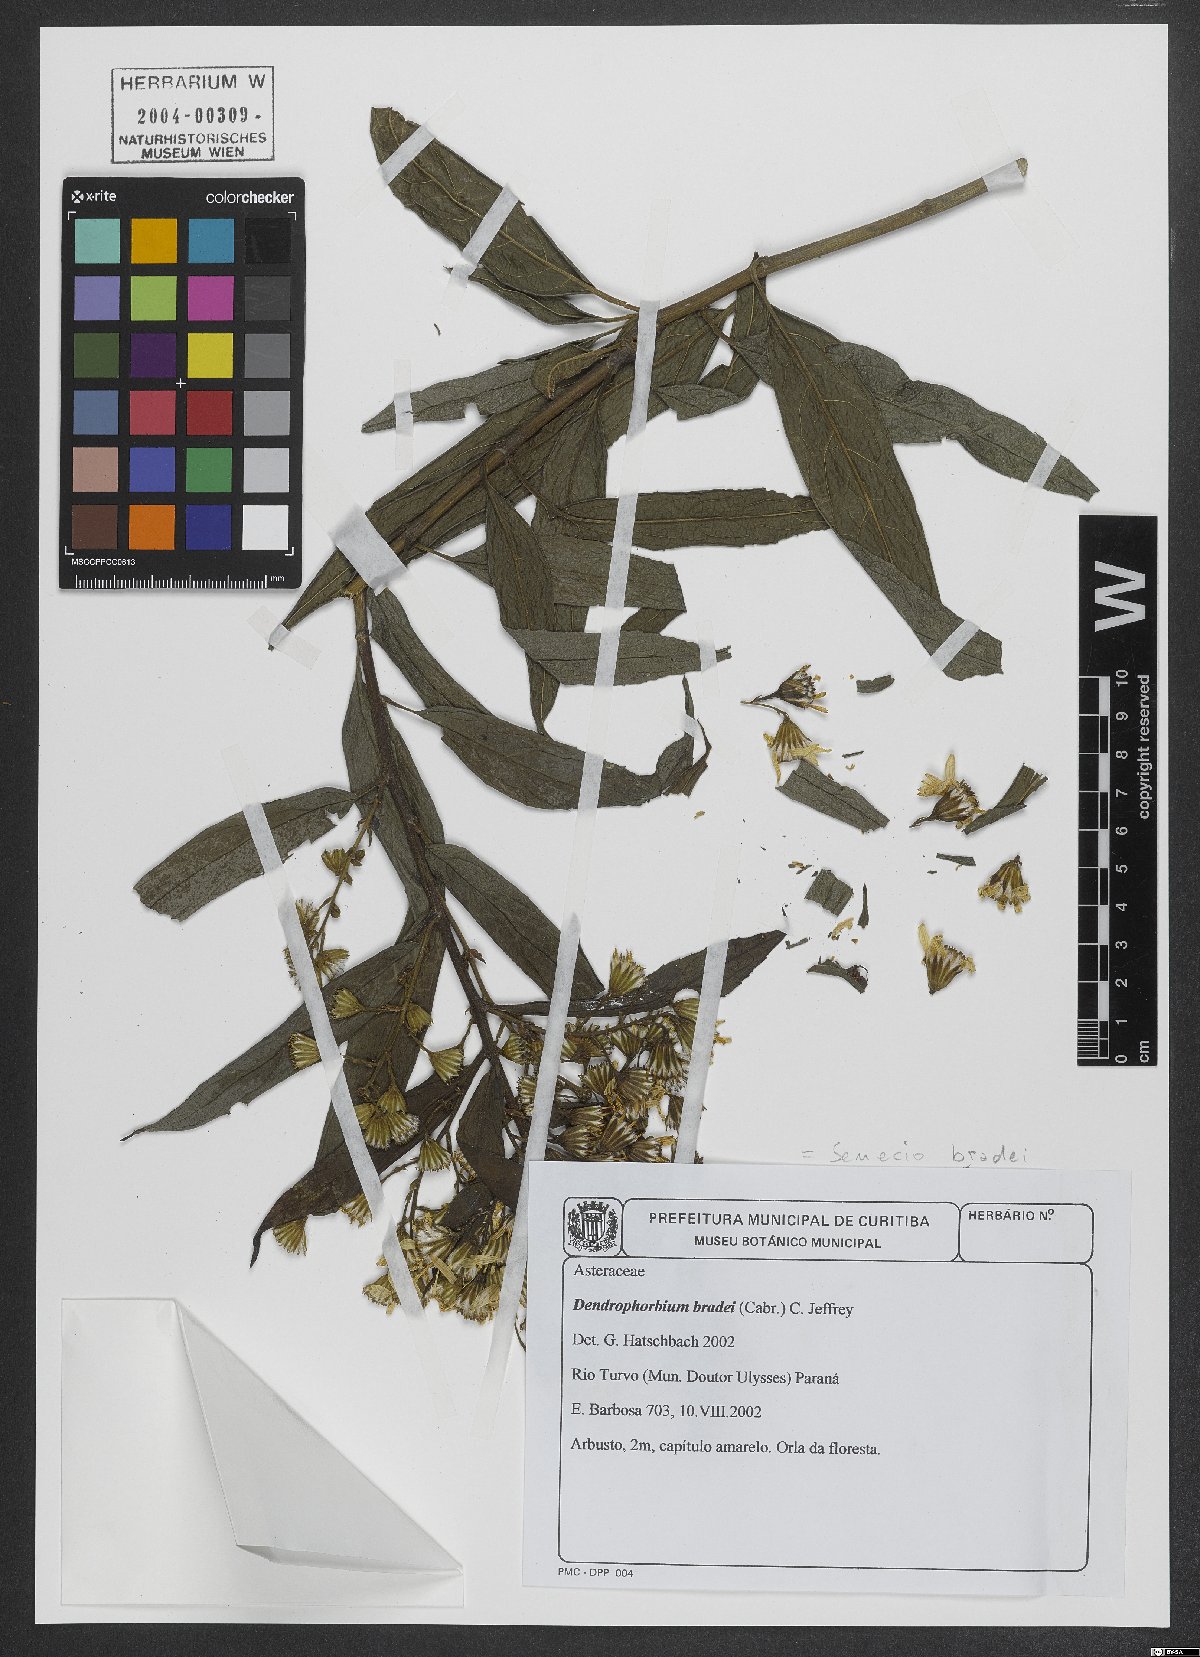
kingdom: Plantae
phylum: Tracheophyta
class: Magnoliopsida
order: Asterales
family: Asteraceae
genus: Dendrophorbium
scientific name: Dendrophorbium bradei
